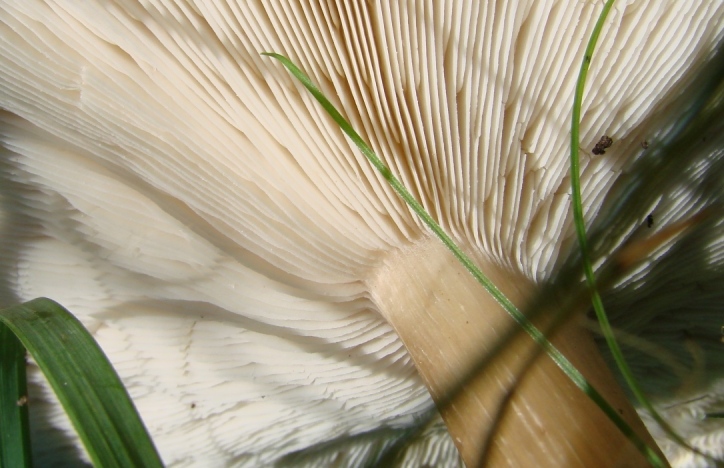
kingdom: Fungi
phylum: Basidiomycota
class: Agaricomycetes
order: Agaricales
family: Tricholomataceae
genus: Melanoleuca
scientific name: Melanoleuca grammopodia
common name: stribestokket munkehat
